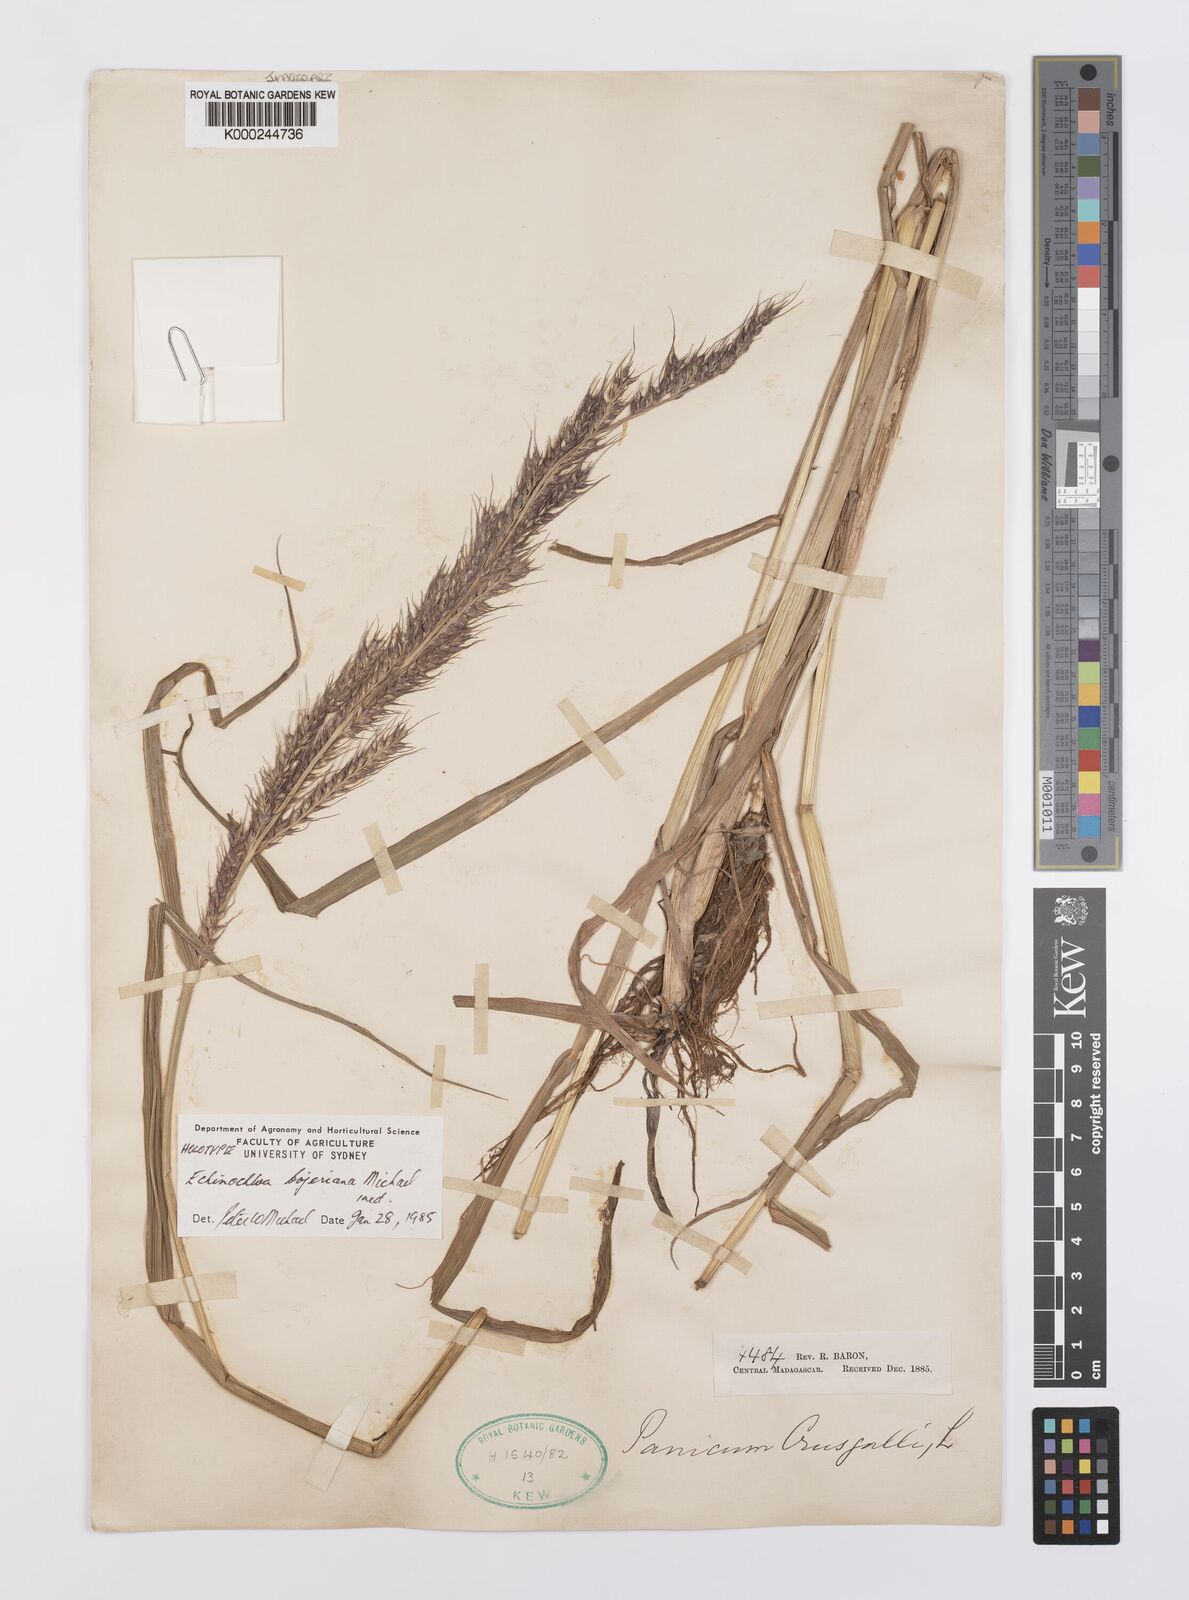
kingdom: Plantae
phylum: Tracheophyta
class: Liliopsida
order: Poales
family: Poaceae
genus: Echinochloa
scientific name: Echinochloa
